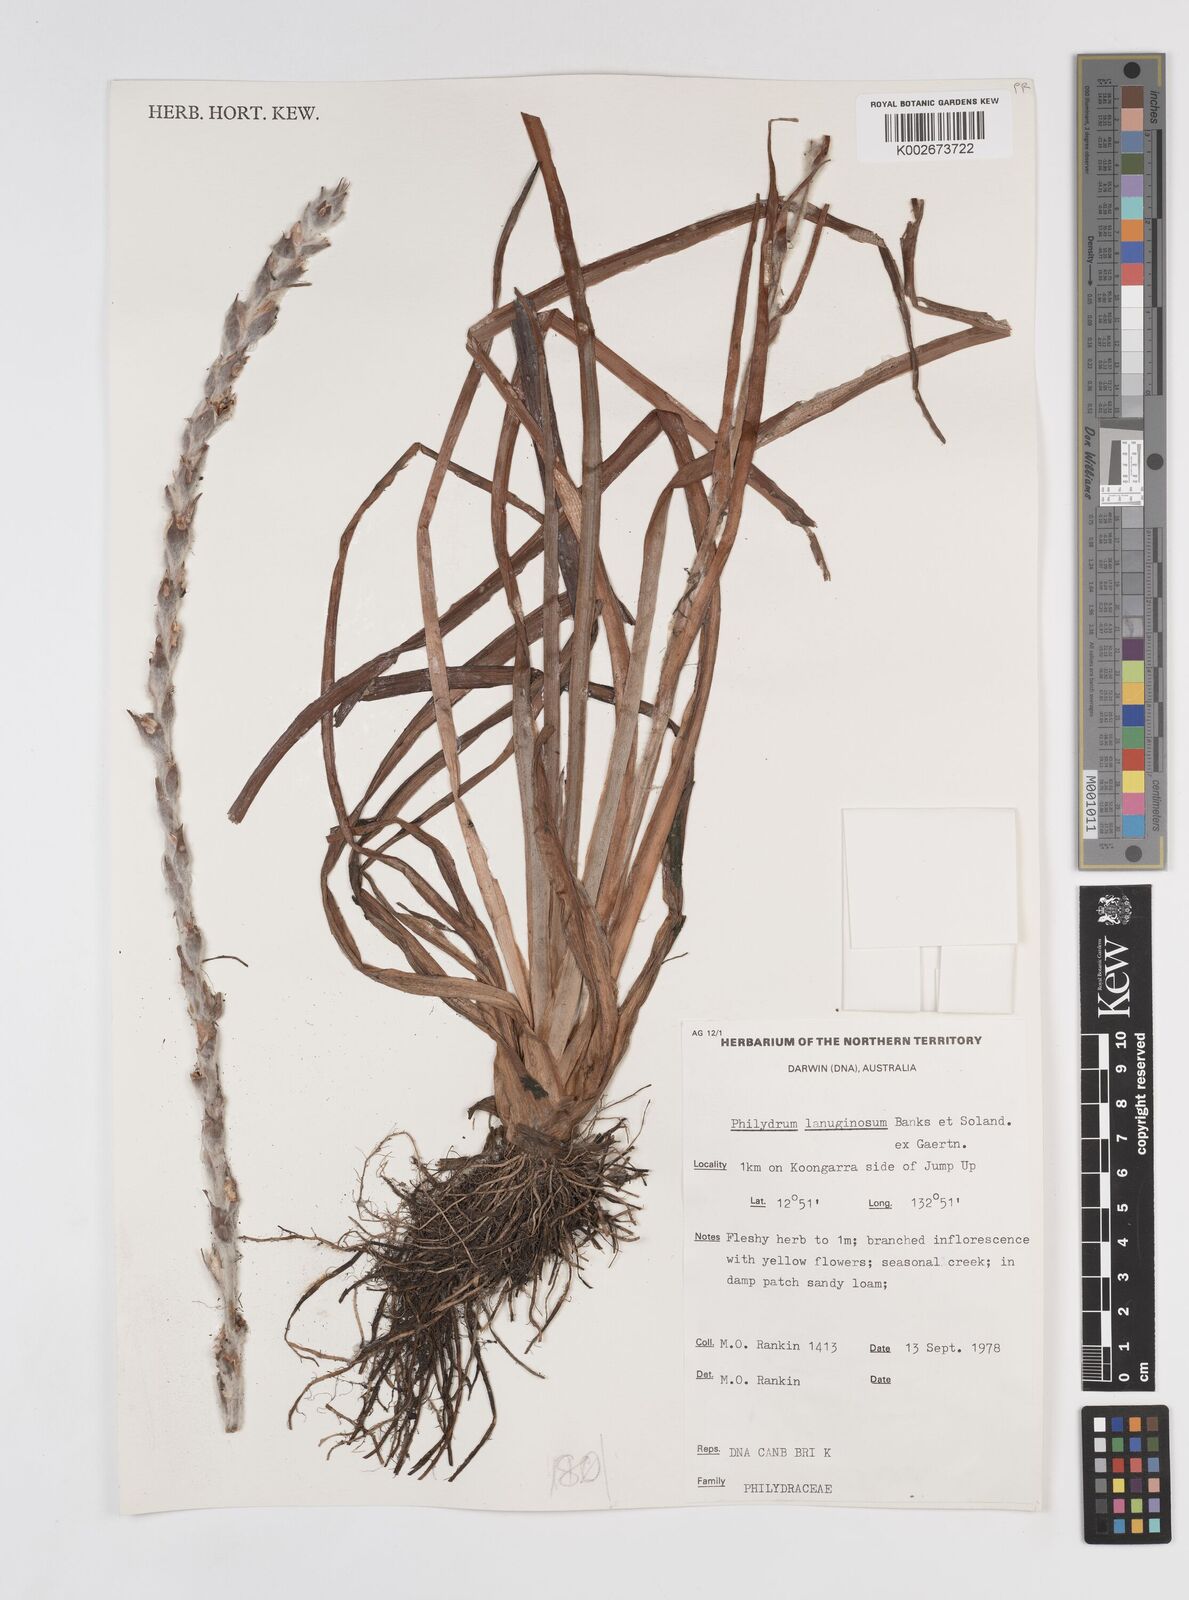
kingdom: Plantae
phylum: Tracheophyta
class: Liliopsida
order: Commelinales
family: Philydraceae
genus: Philydrum
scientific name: Philydrum lanuginosum
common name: Woolly frog's mouth
